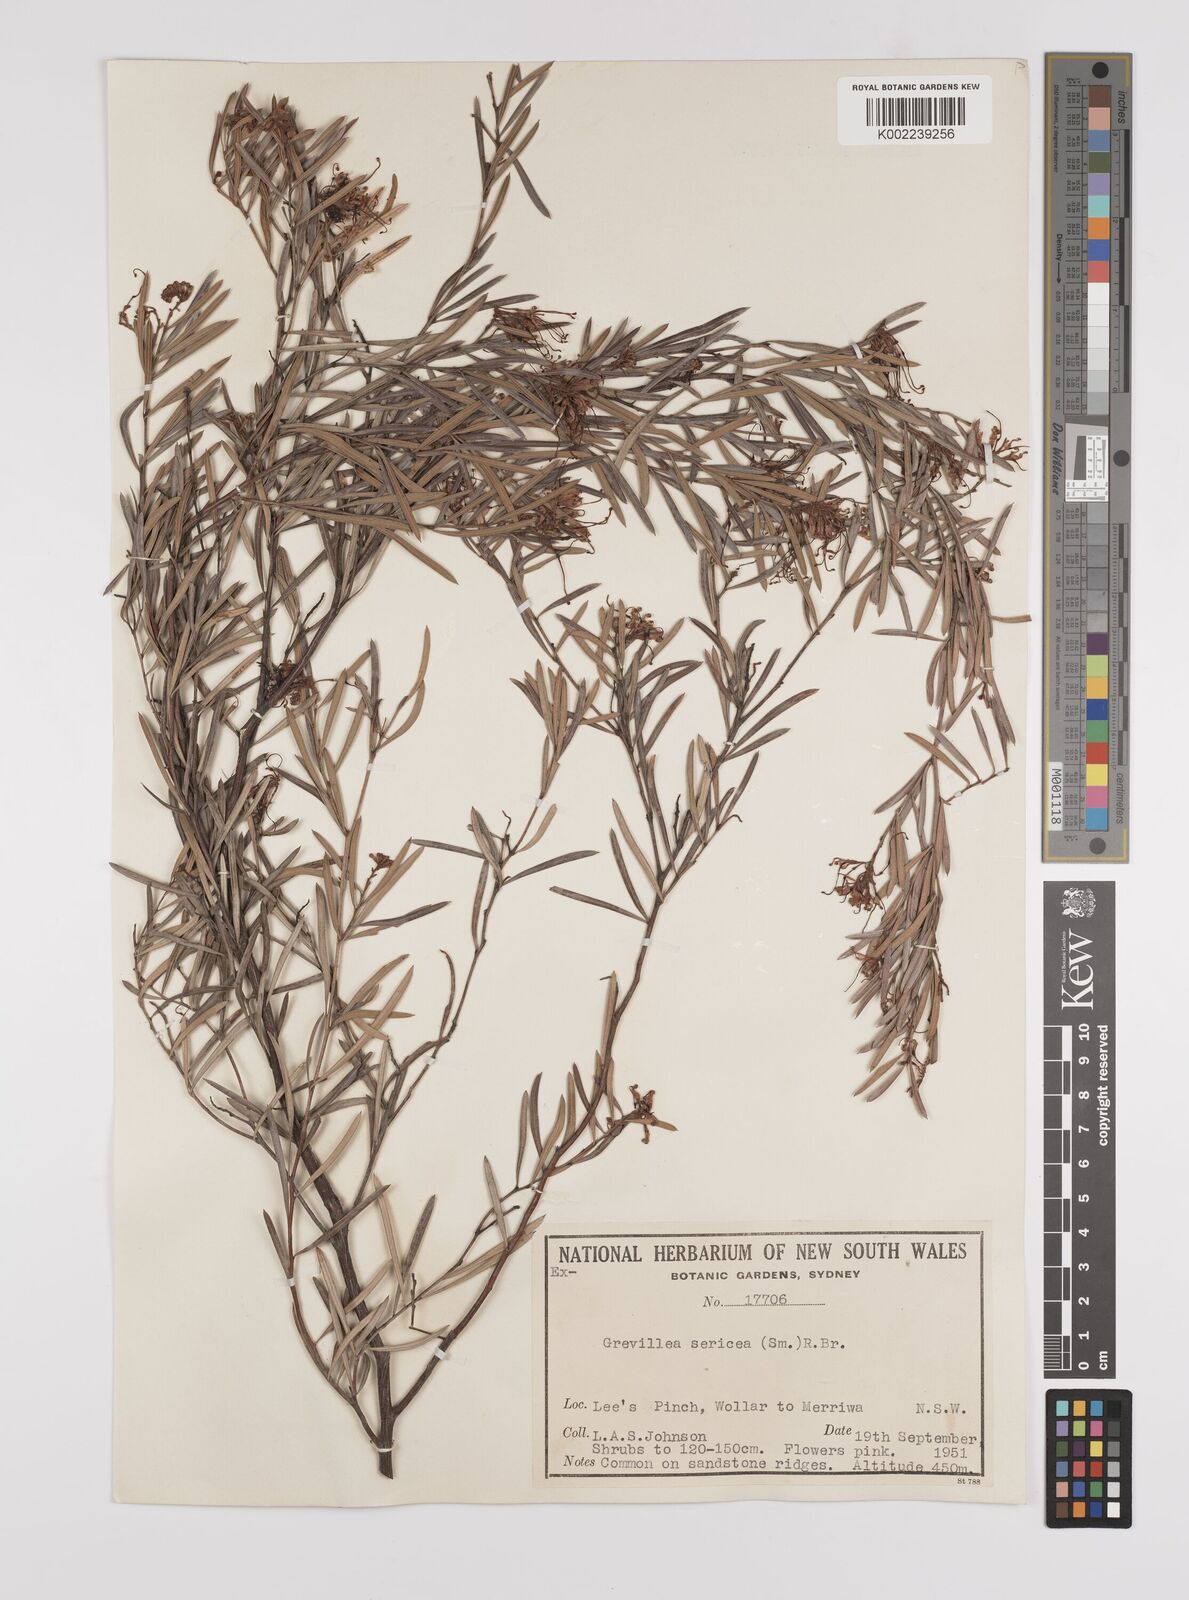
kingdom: Plantae
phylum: Tracheophyta
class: Magnoliopsida
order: Proteales
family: Proteaceae
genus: Grevillea
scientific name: Grevillea sericea
